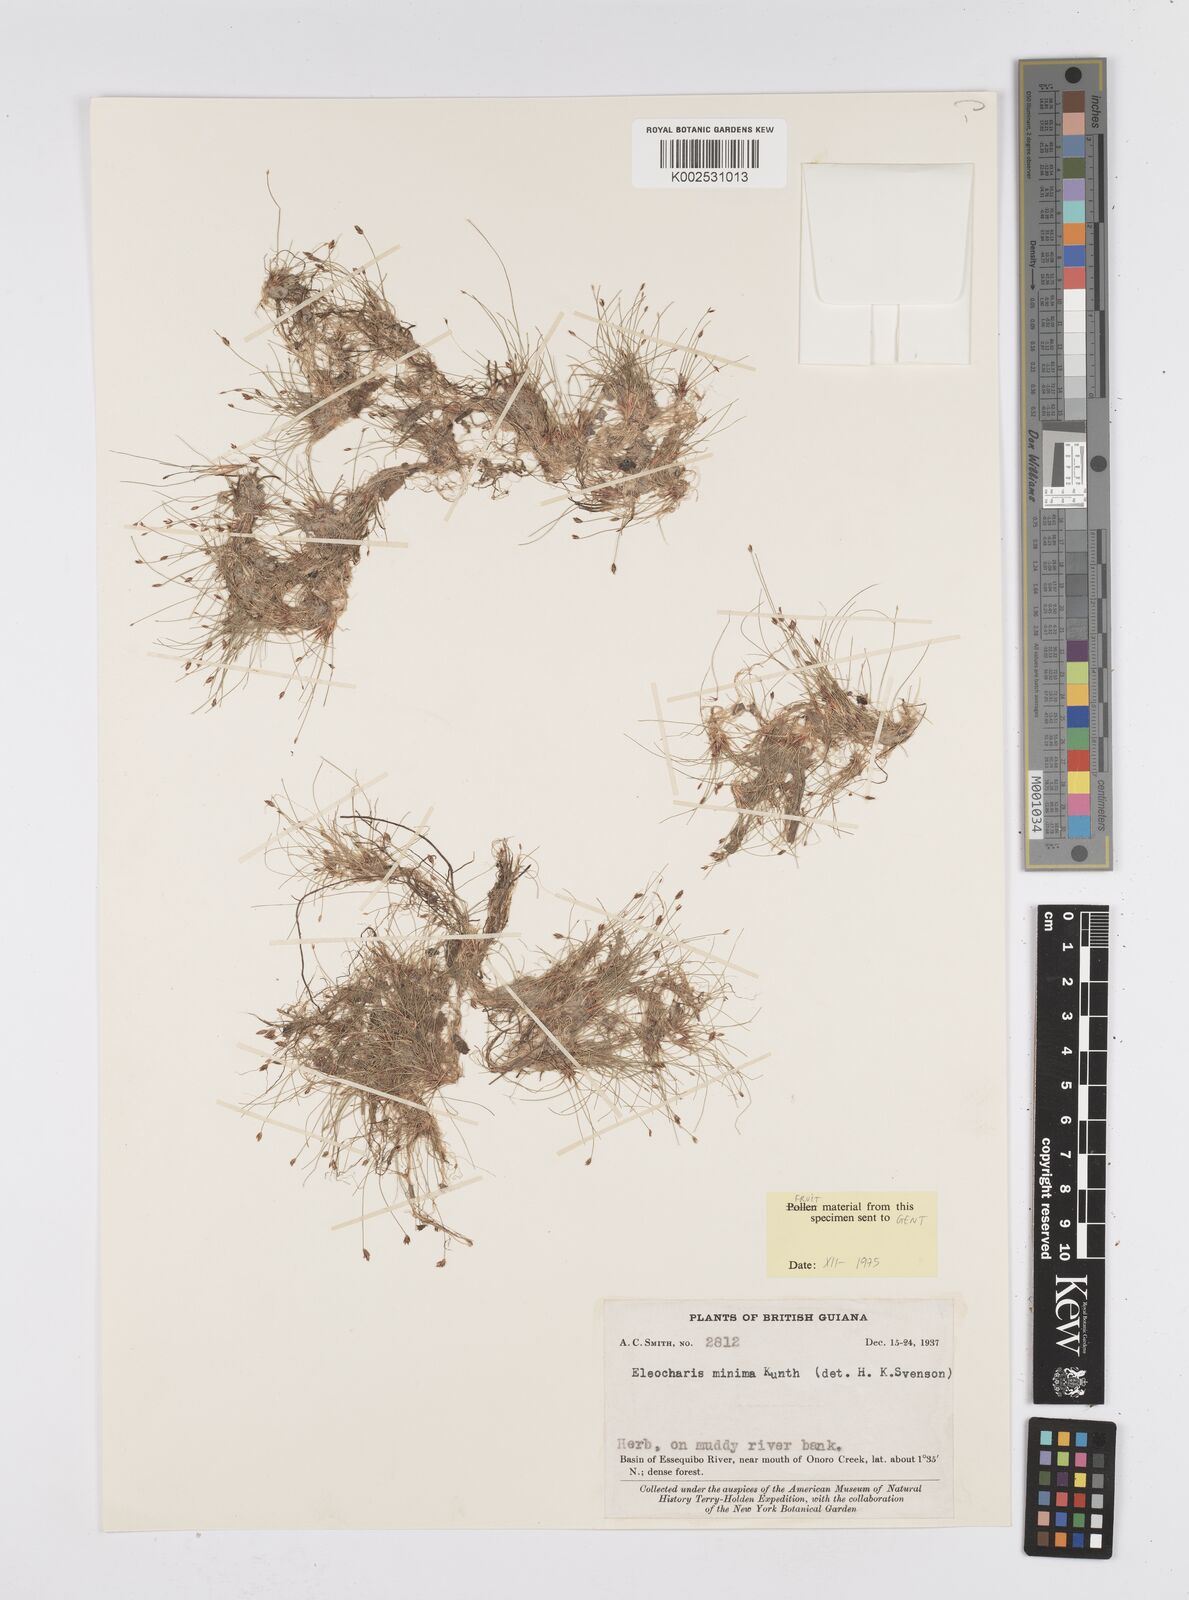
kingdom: Plantae
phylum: Tracheophyta
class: Liliopsida
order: Poales
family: Cyperaceae
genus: Eleocharis
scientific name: Eleocharis minima
